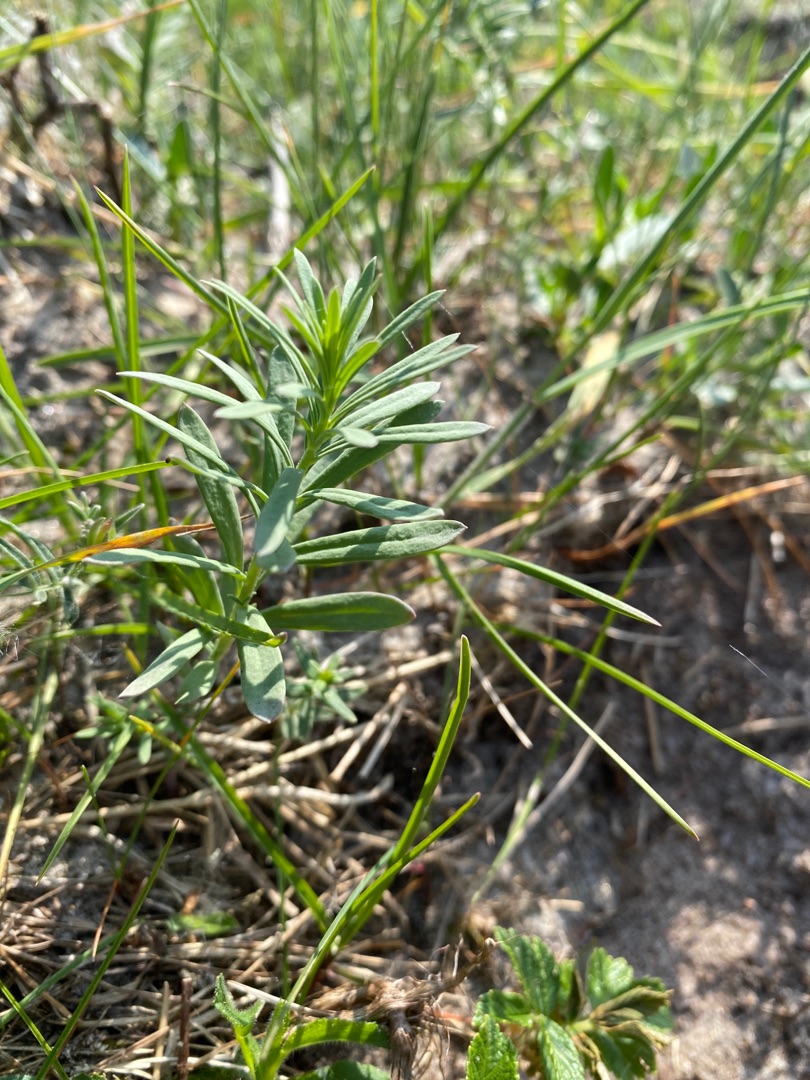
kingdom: Plantae
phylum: Tracheophyta
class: Magnoliopsida
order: Lamiales
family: Plantaginaceae
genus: Linaria
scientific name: Linaria vulgaris
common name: Almindelig torskemund
